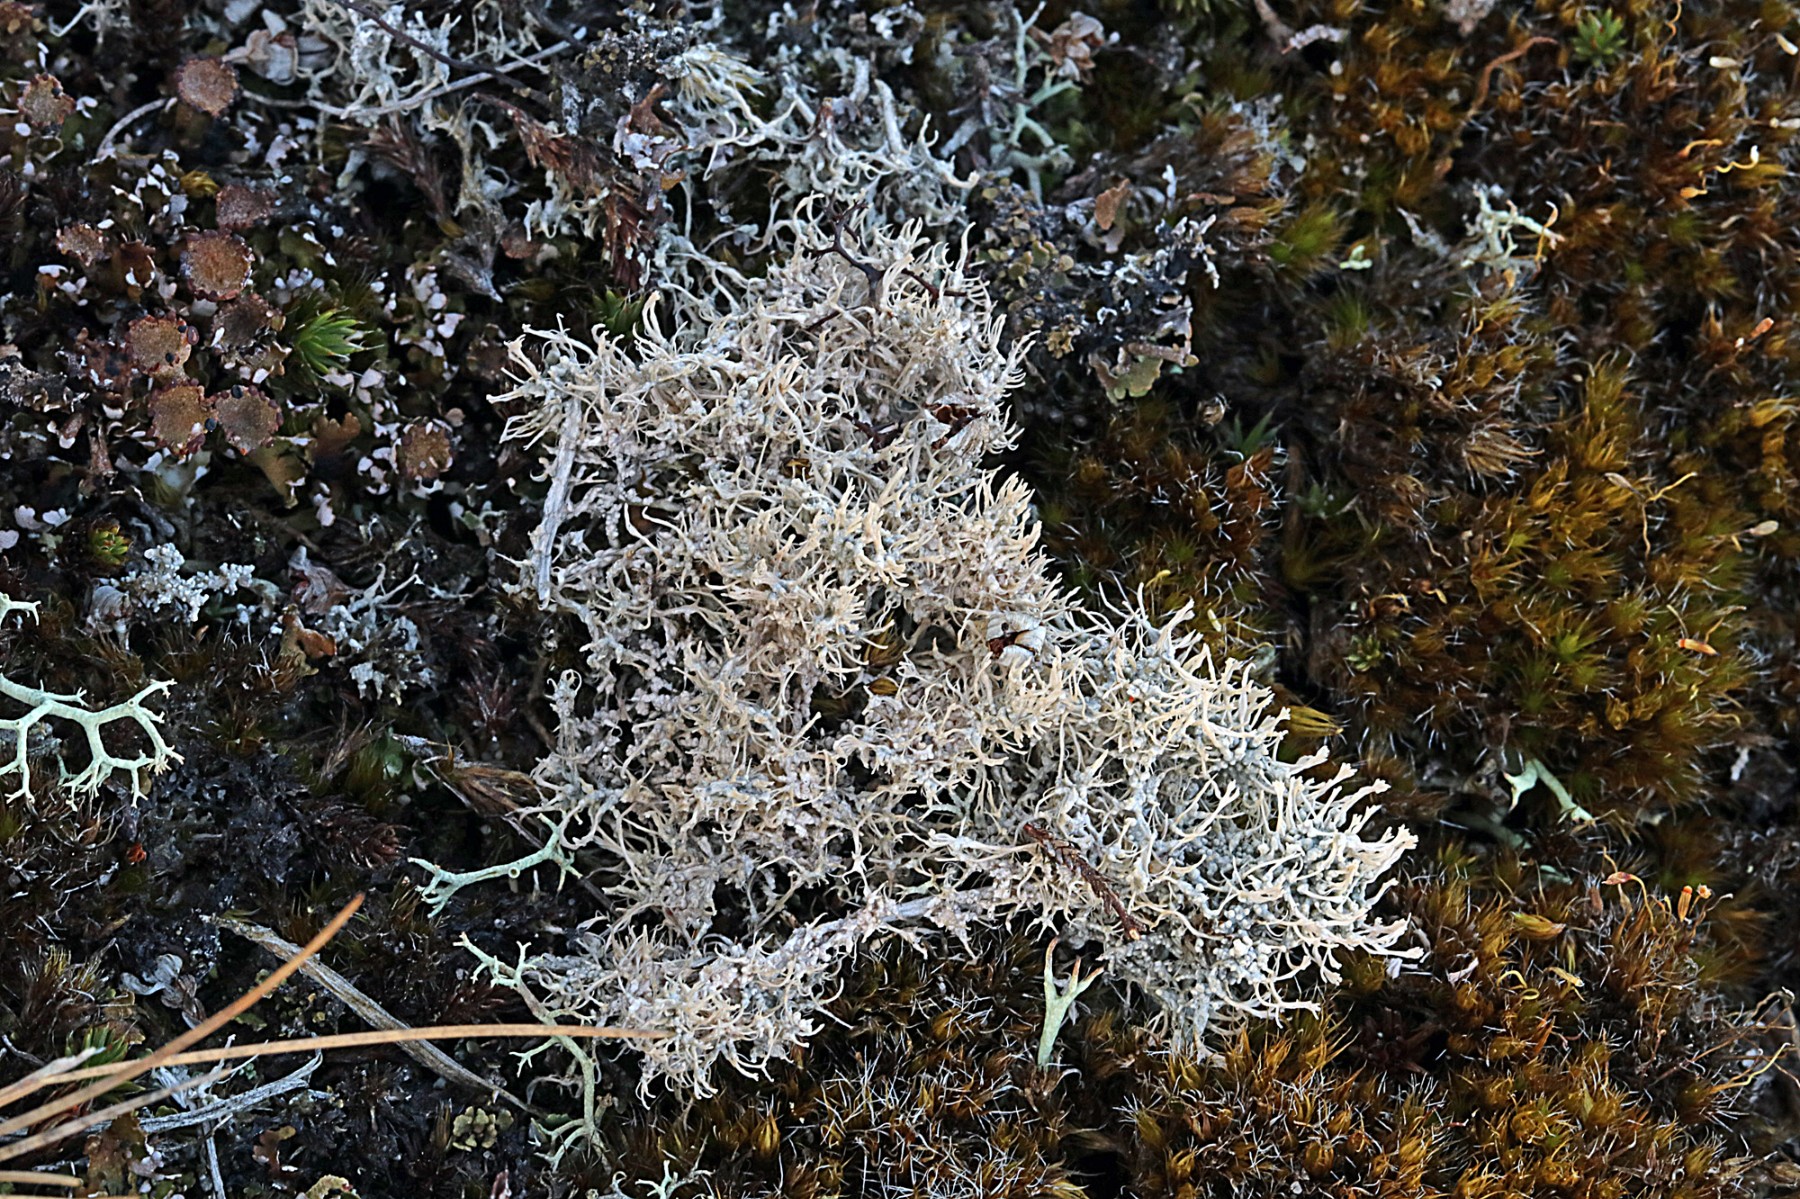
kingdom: Fungi
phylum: Ascomycota
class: Lecanoromycetes
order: Pertusariales
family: Ochrolechiaceae
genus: Ochrolechia
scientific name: Ochrolechia frigida
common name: fjeld-blegskivelav
